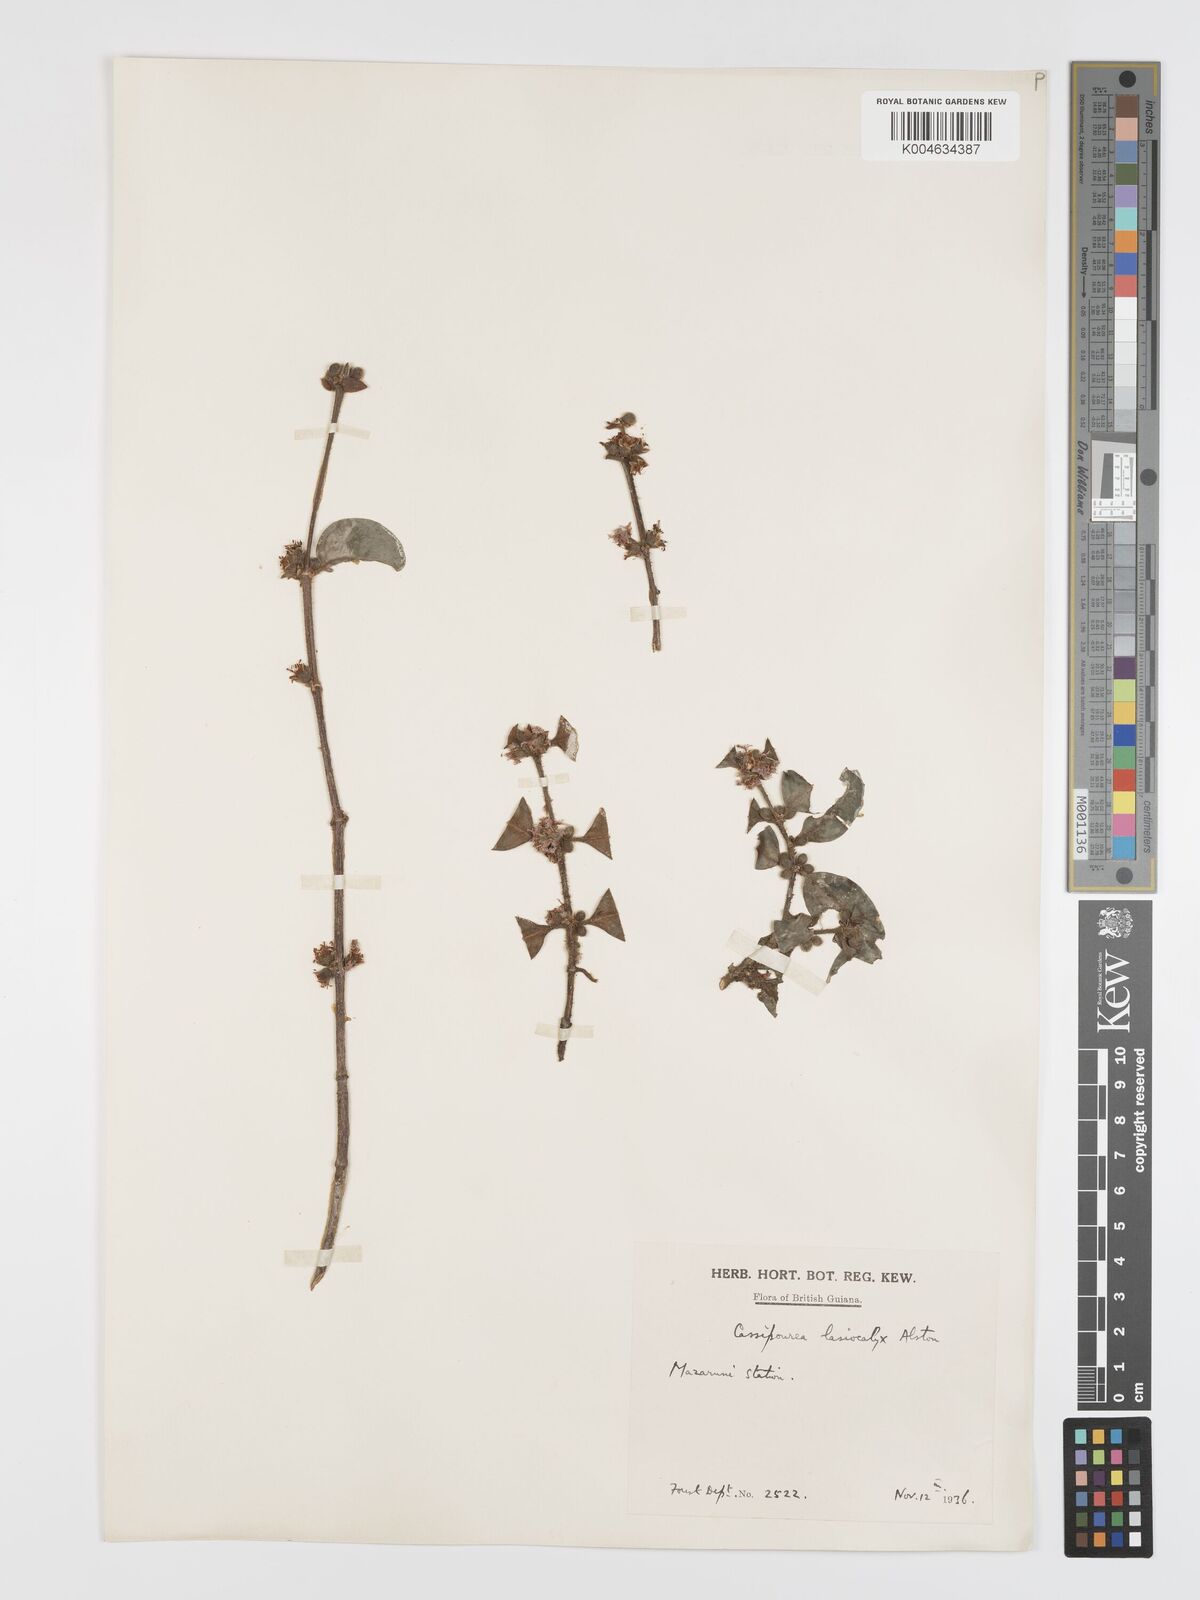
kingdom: Plantae
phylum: Tracheophyta
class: Magnoliopsida
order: Malpighiales
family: Rhizophoraceae
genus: Cassipourea
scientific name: Cassipourea lasiocalyx
